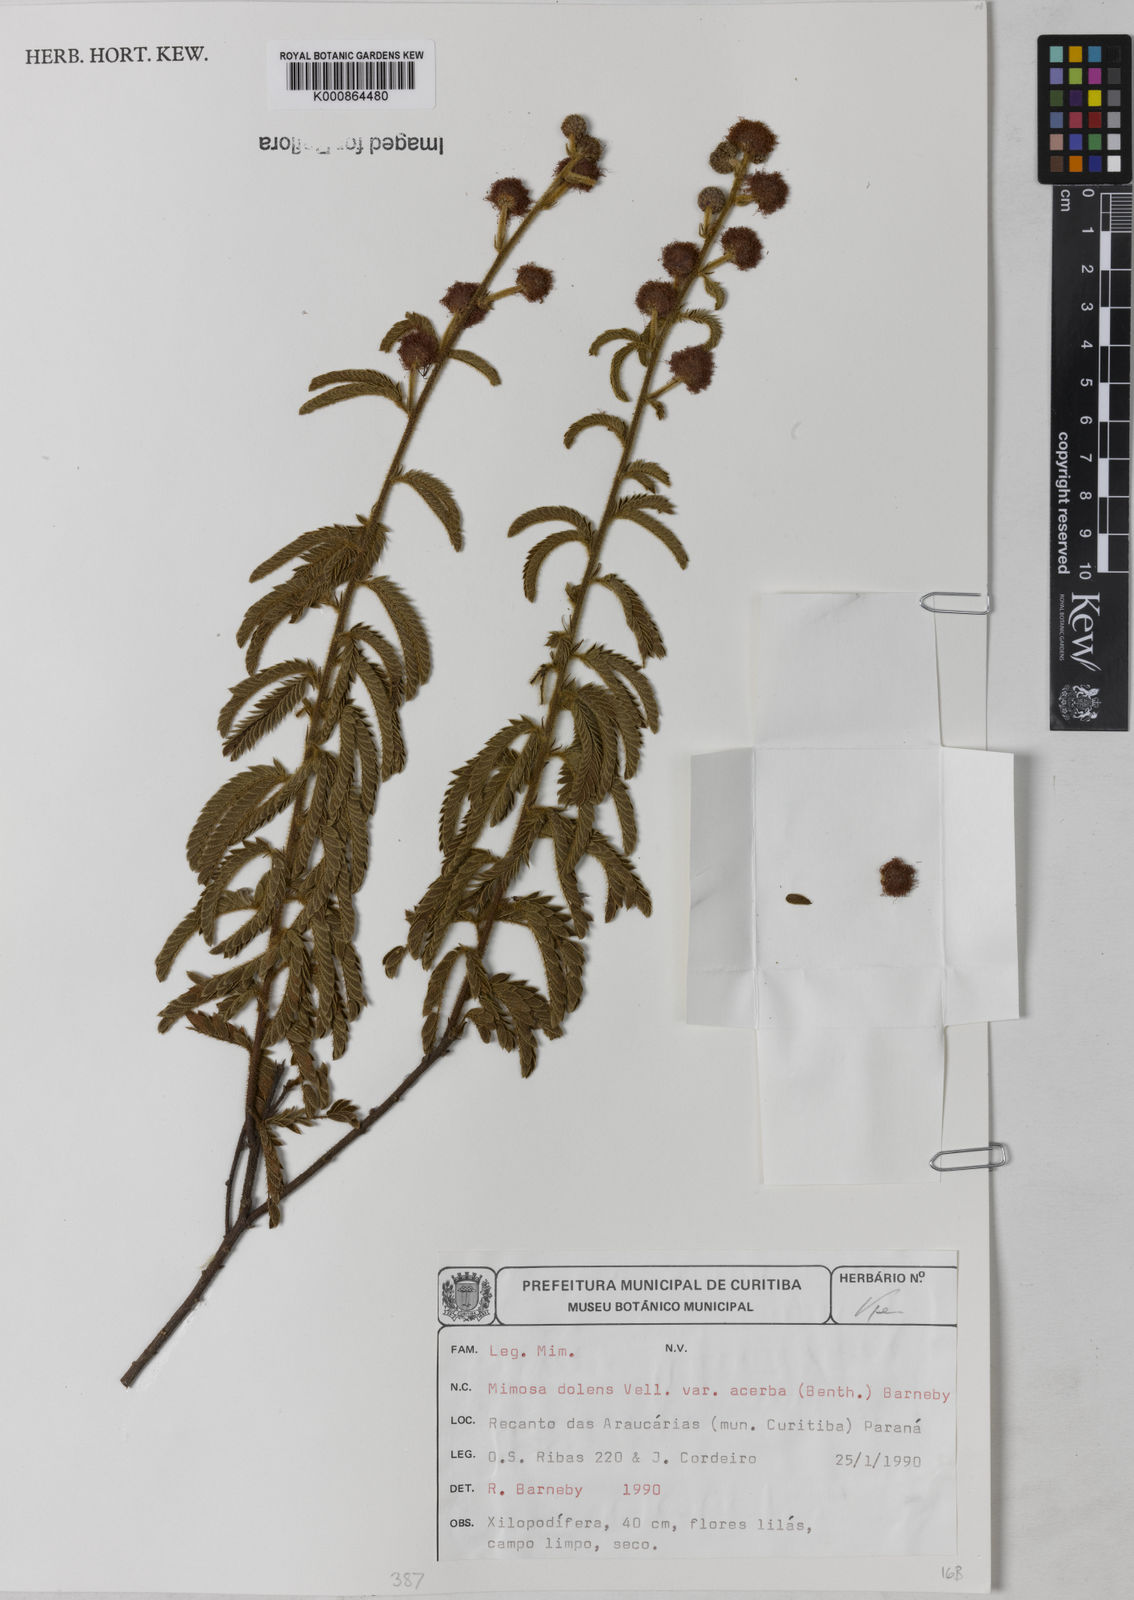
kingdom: Plantae
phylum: Tracheophyta
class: Magnoliopsida
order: Fabales
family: Fabaceae
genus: Mimosa
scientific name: Mimosa dolens
